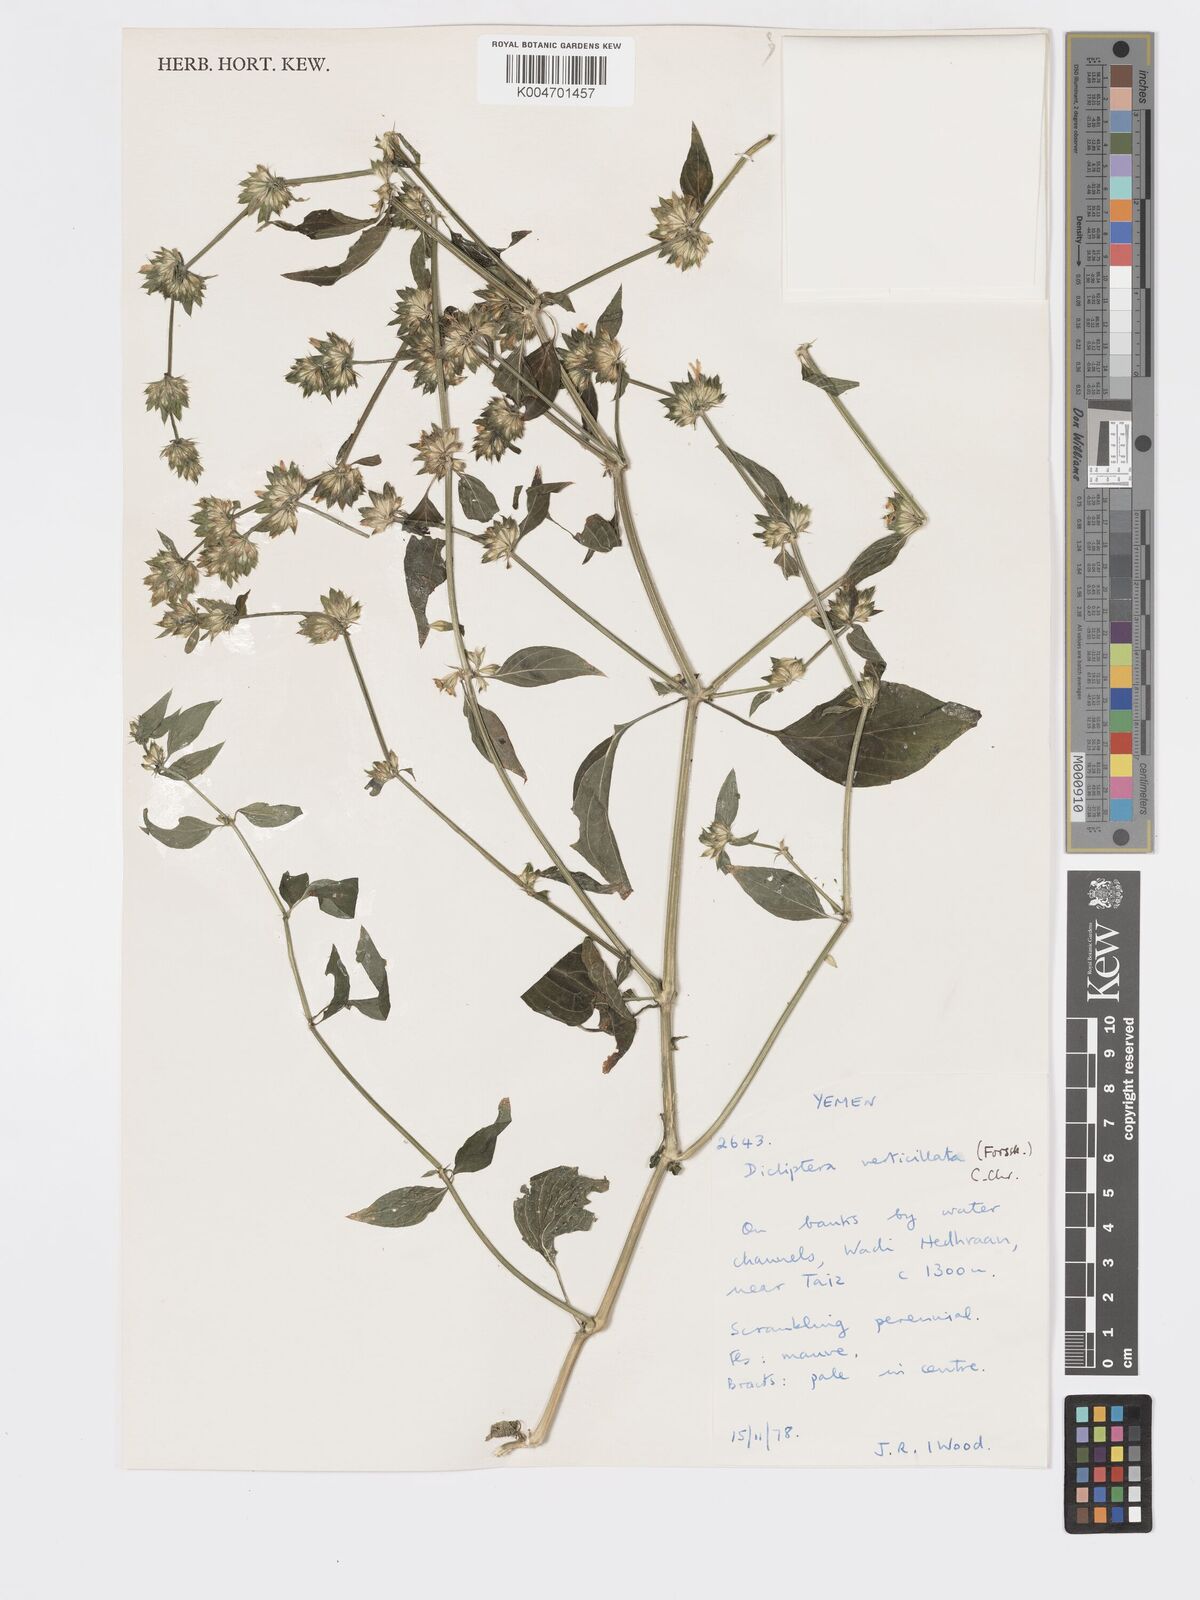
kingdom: Plantae
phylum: Tracheophyta
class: Magnoliopsida
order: Lamiales
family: Acanthaceae
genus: Dicliptera
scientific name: Dicliptera hyalina
